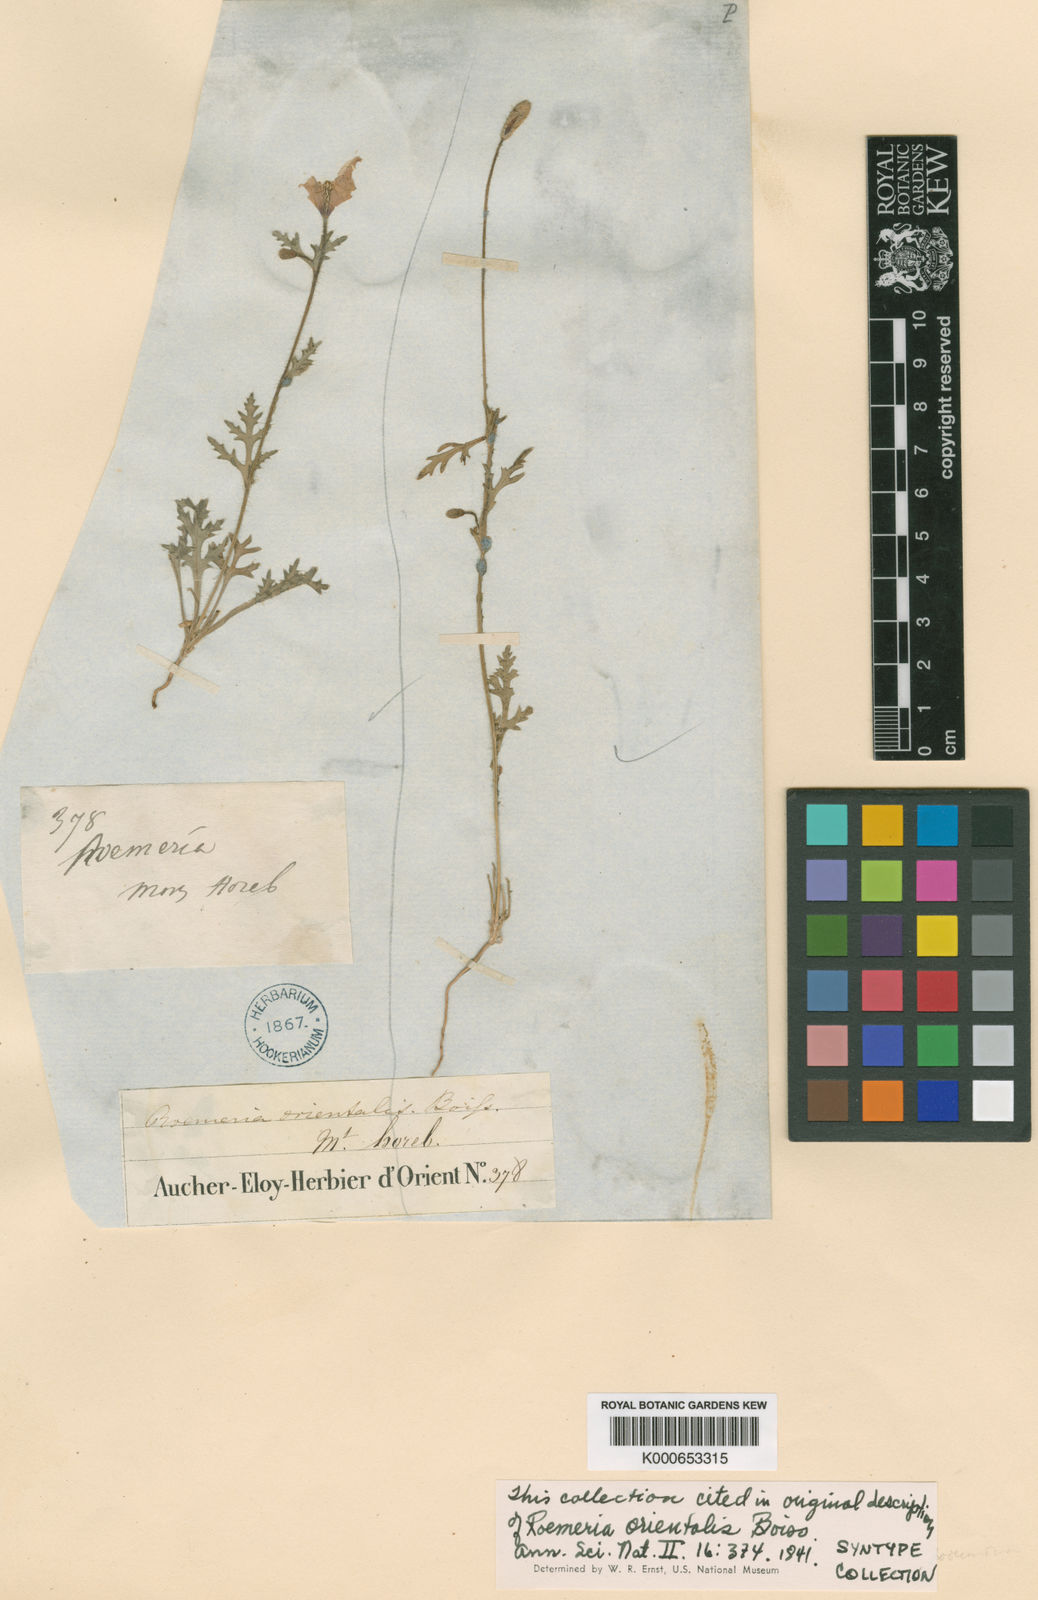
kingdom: Plantae
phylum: Tracheophyta
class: Magnoliopsida
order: Ranunculales
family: Papaveraceae
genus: Roemeria
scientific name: Roemeria hybrida
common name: Violet horned-poppy
